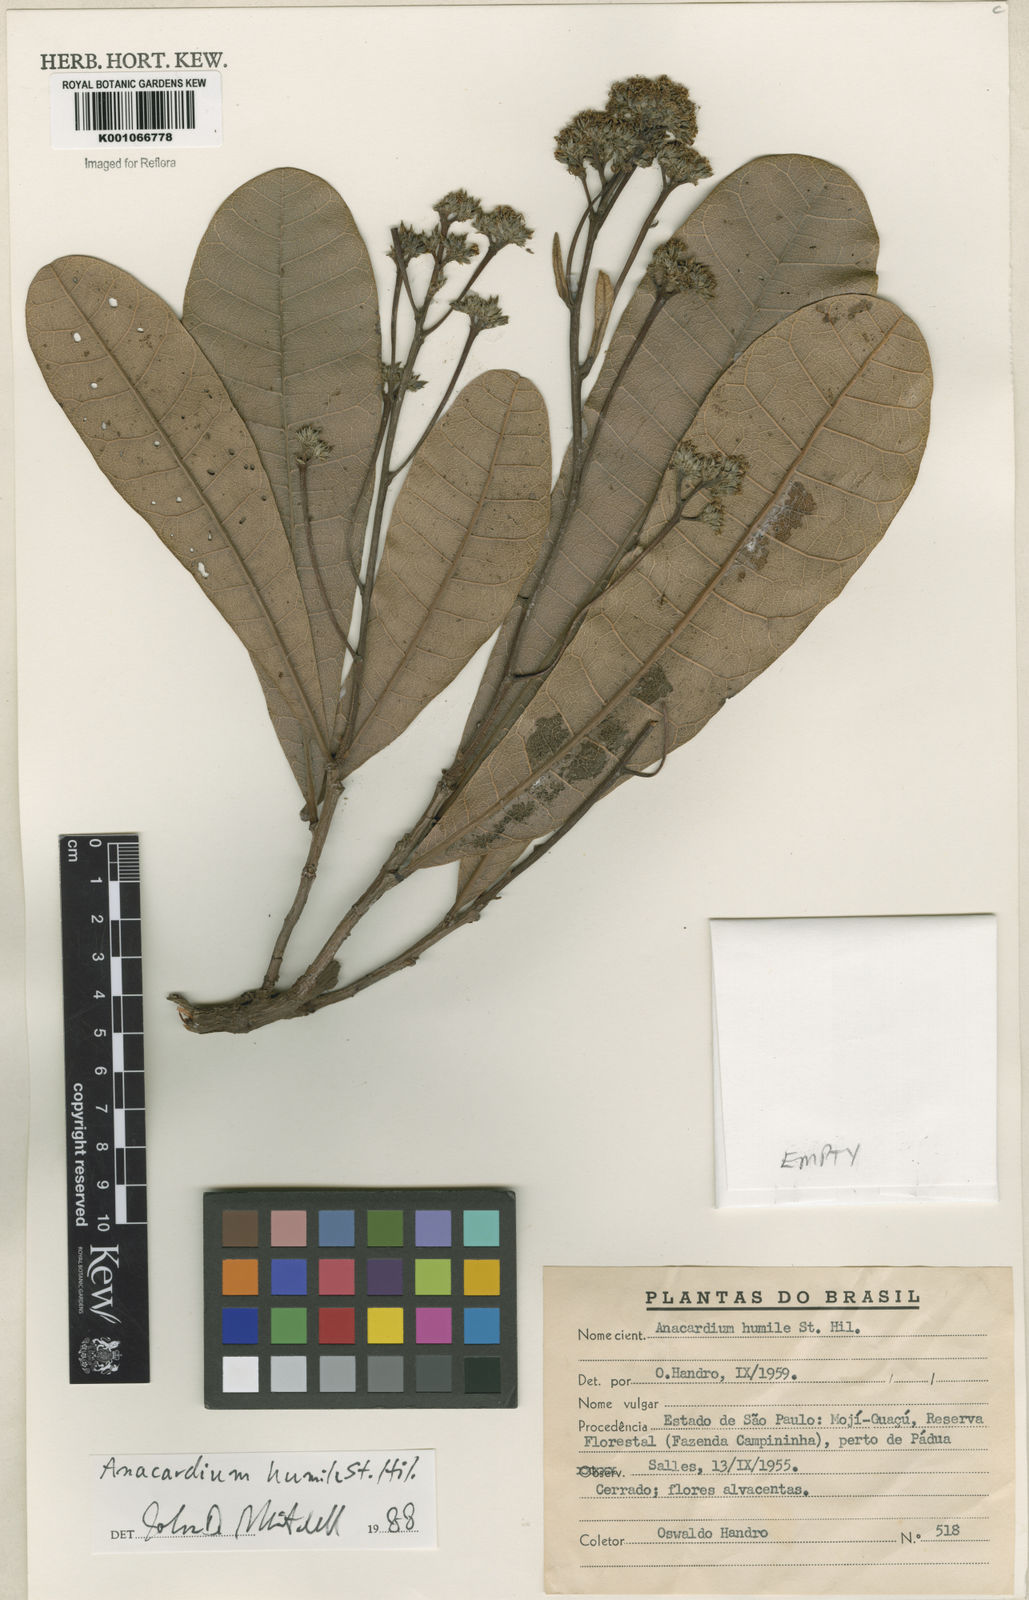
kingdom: Plantae
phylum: Tracheophyta
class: Magnoliopsida
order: Sapindales
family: Anacardiaceae
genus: Anacardium
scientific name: Anacardium humile
